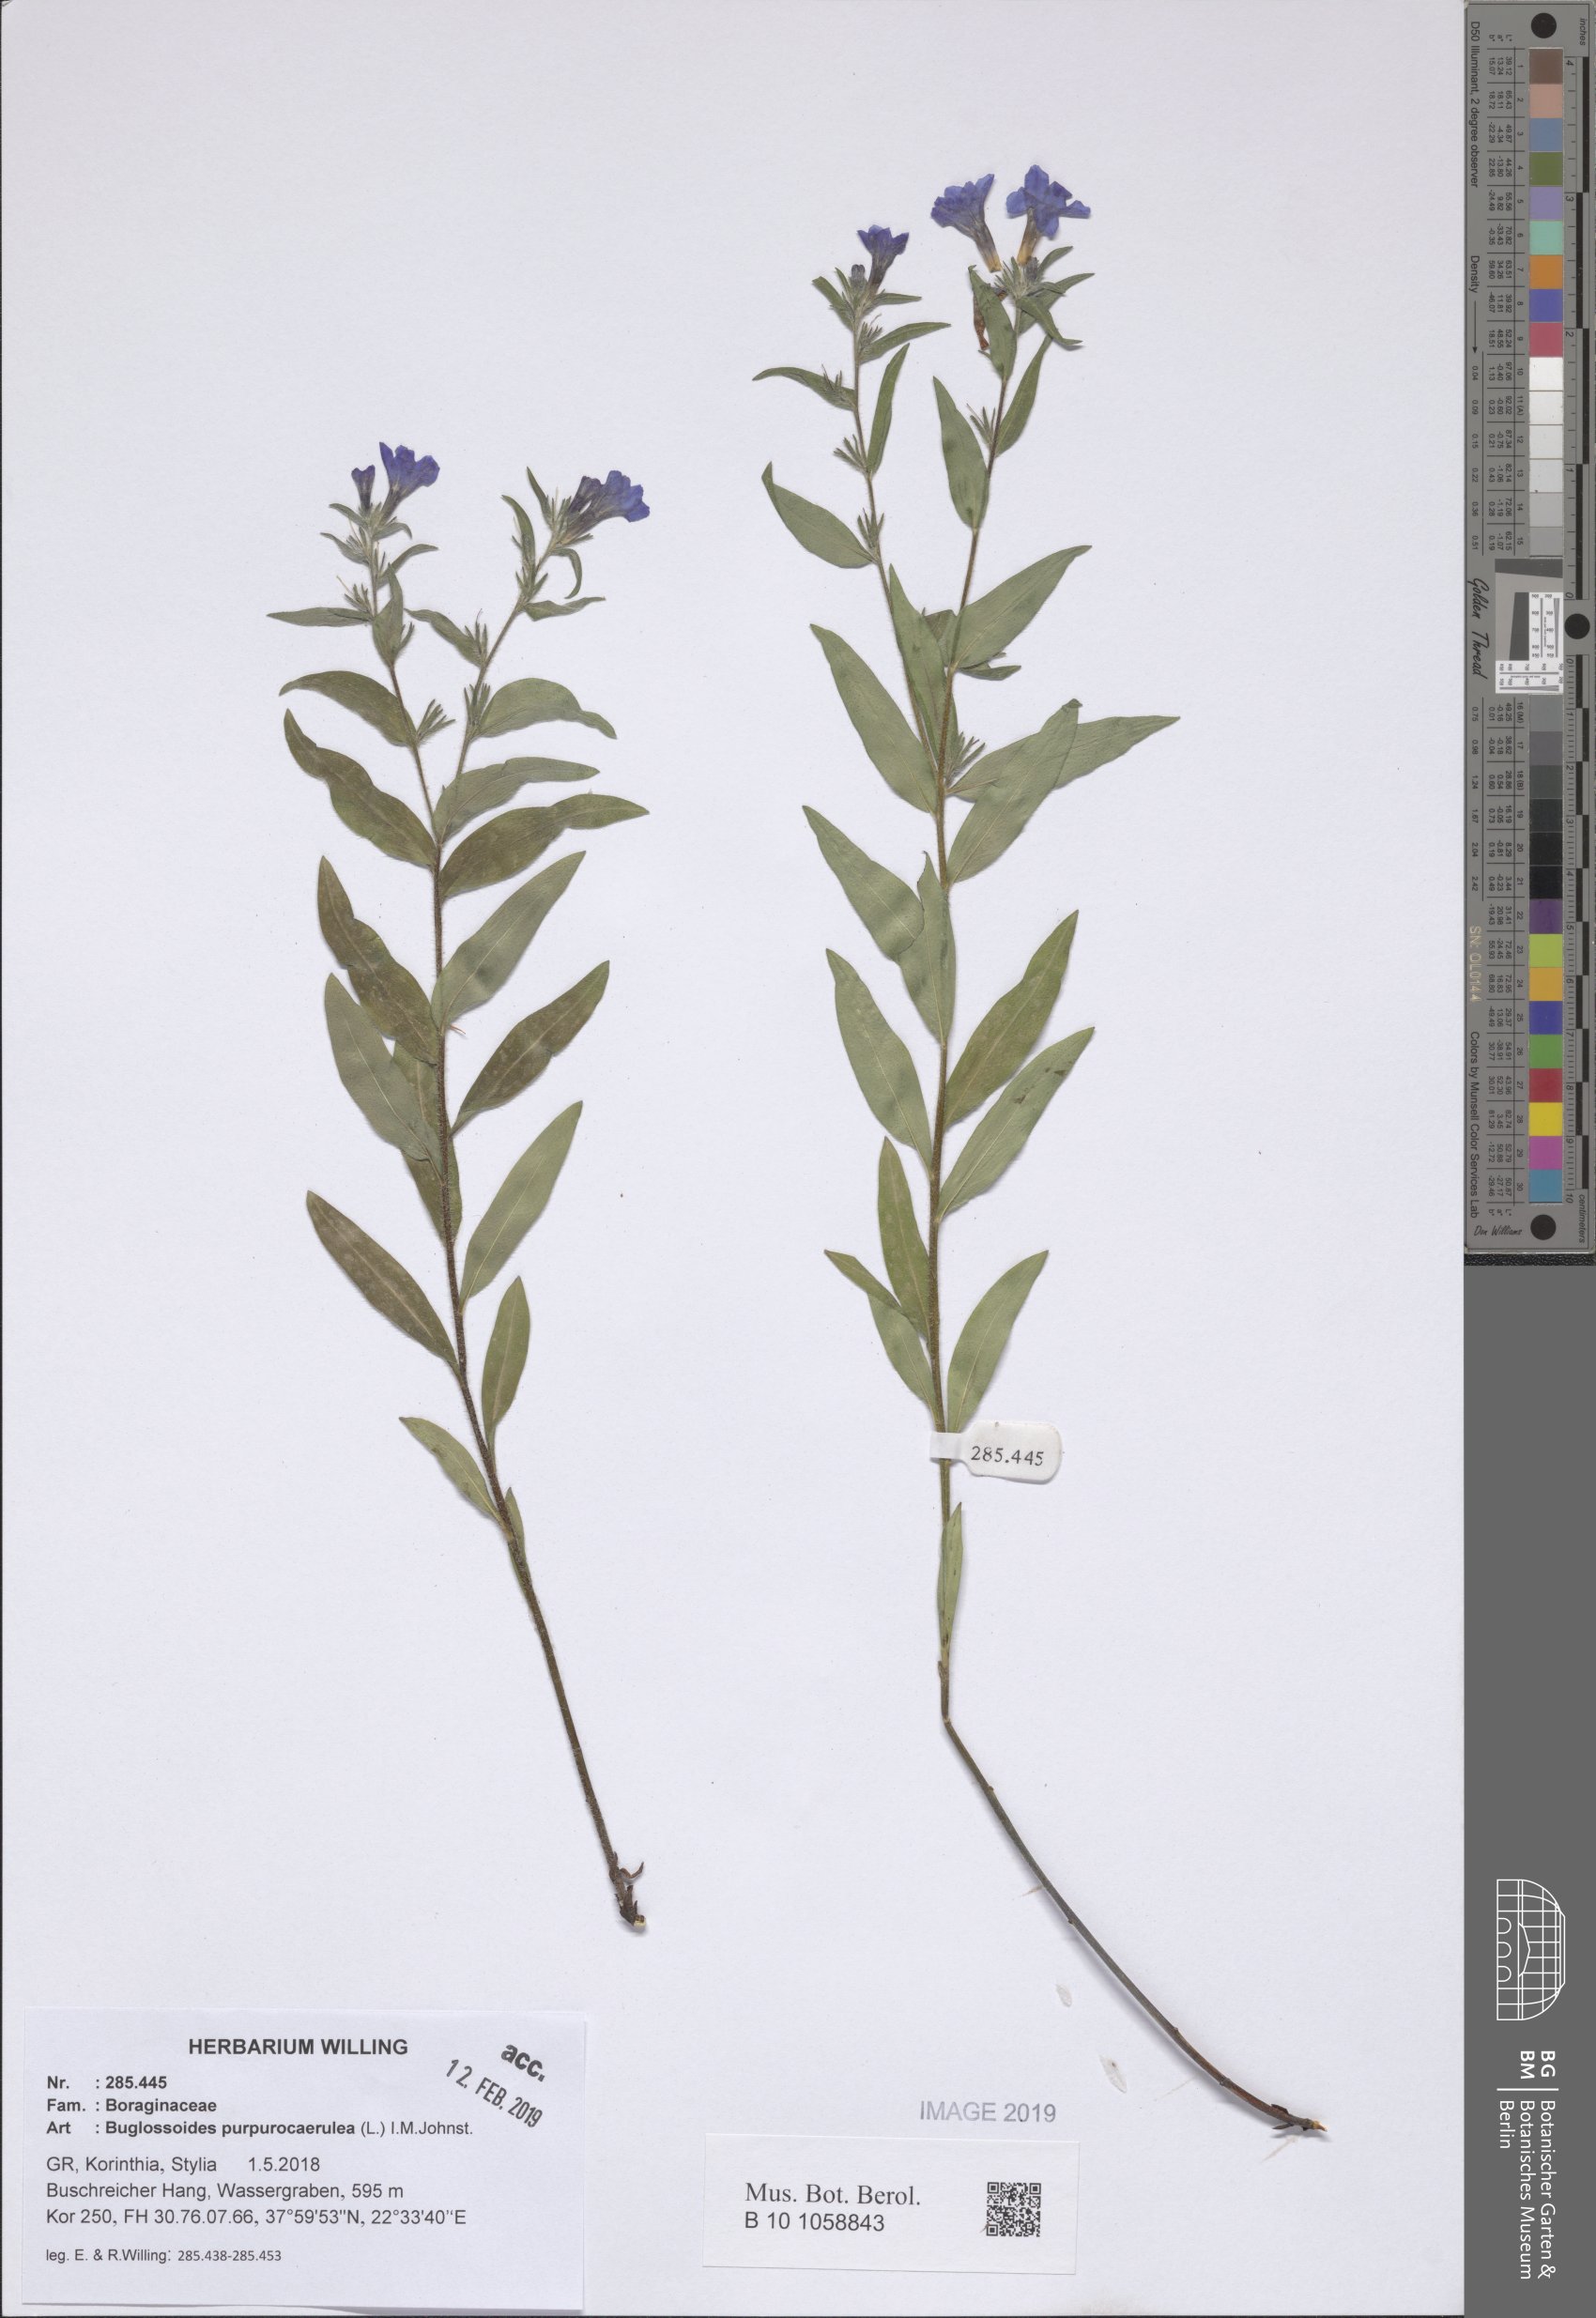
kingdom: Plantae
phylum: Tracheophyta
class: Magnoliopsida
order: Boraginales
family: Boraginaceae
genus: Aegonychon
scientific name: Aegonychon purpurocaeruleum
